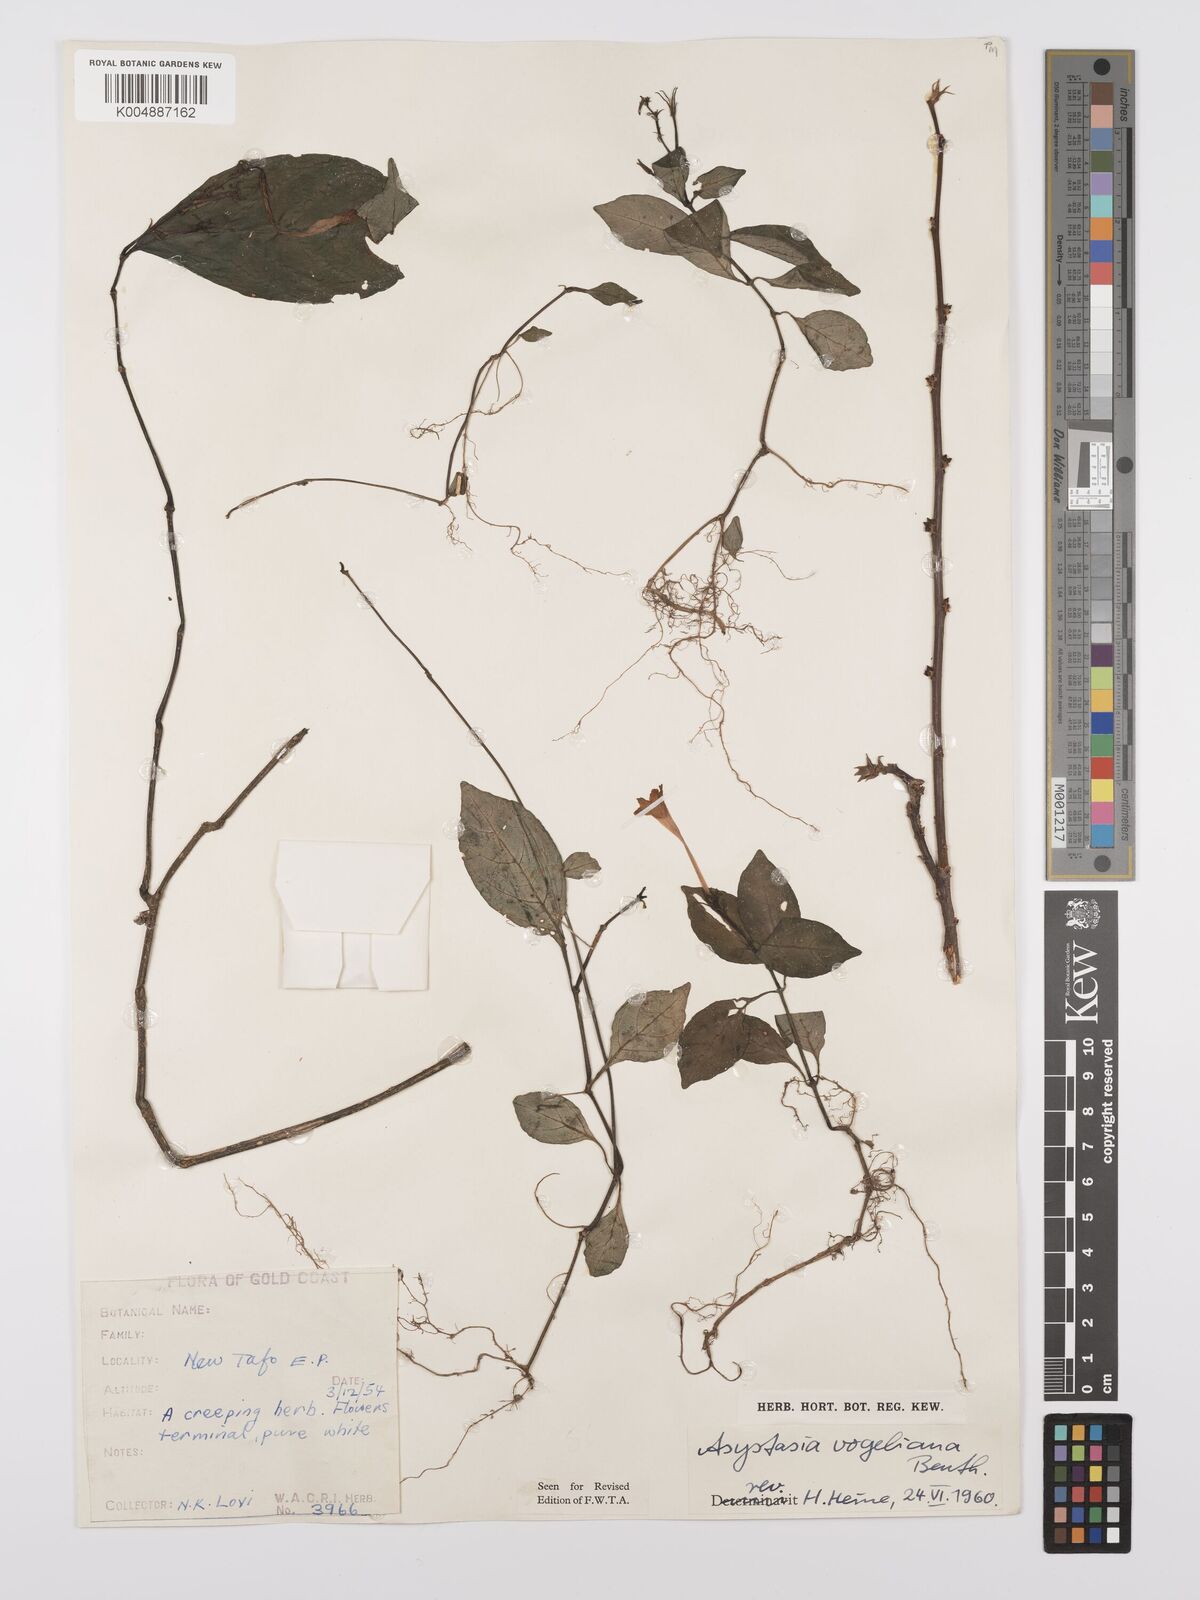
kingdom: Plantae
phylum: Tracheophyta
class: Magnoliopsida
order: Lamiales
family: Acanthaceae
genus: Asystasia
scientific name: Asystasia vogeliana
